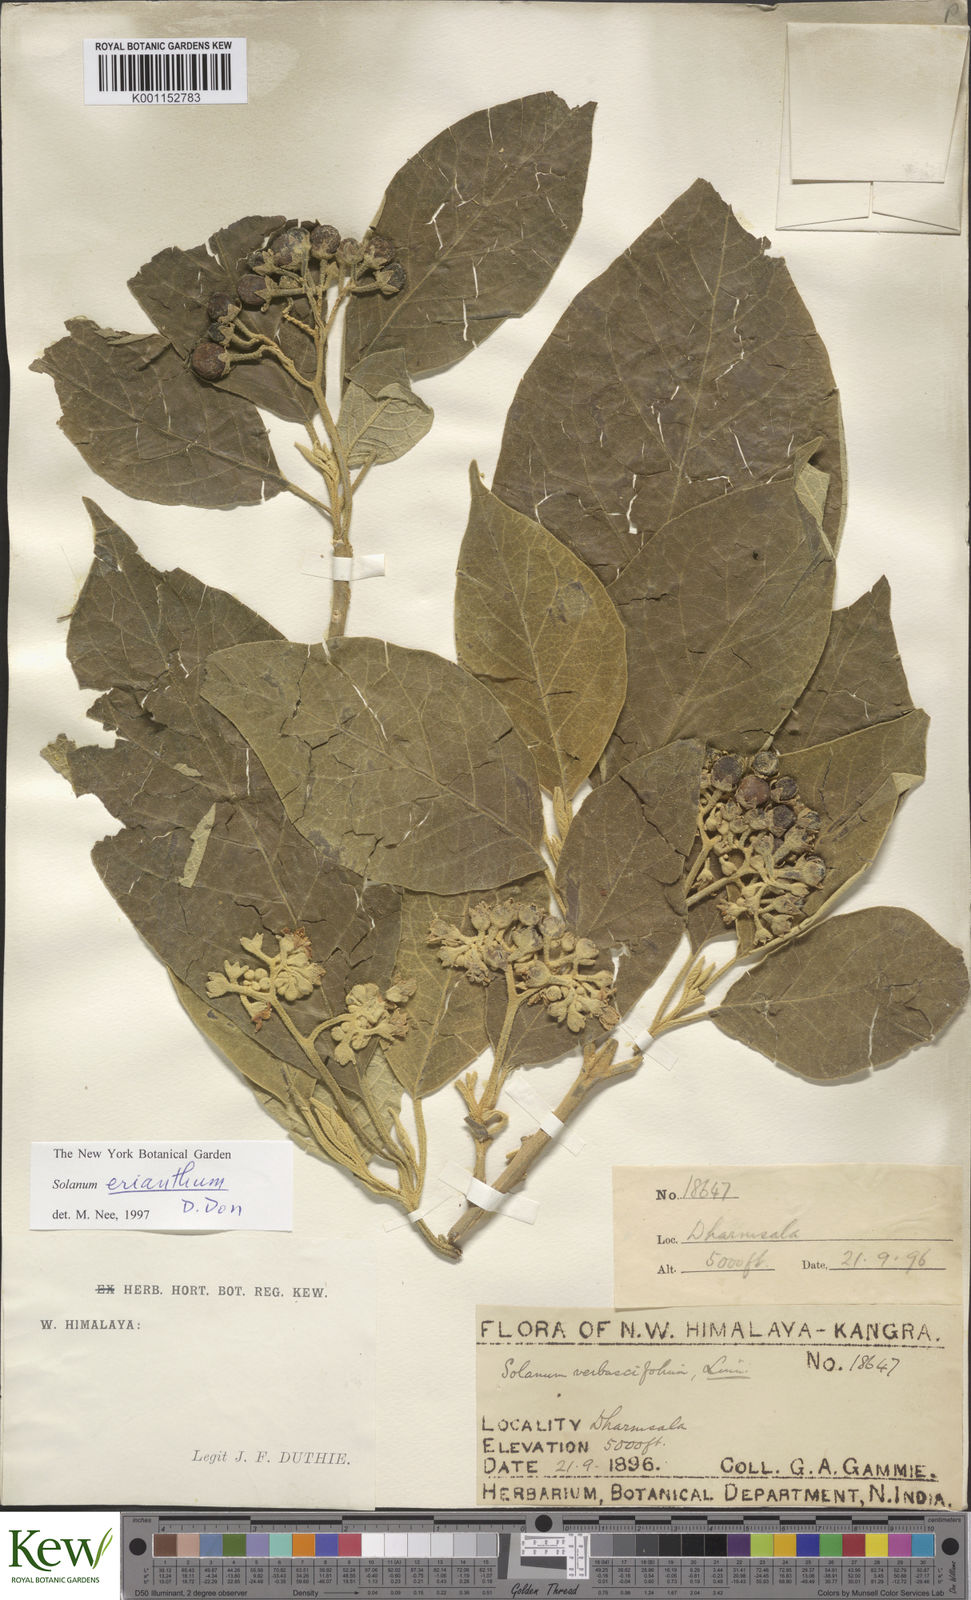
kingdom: Plantae
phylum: Tracheophyta
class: Magnoliopsida
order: Solanales
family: Solanaceae
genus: Solanum
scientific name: Solanum erianthum
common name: Tobacco-tree
